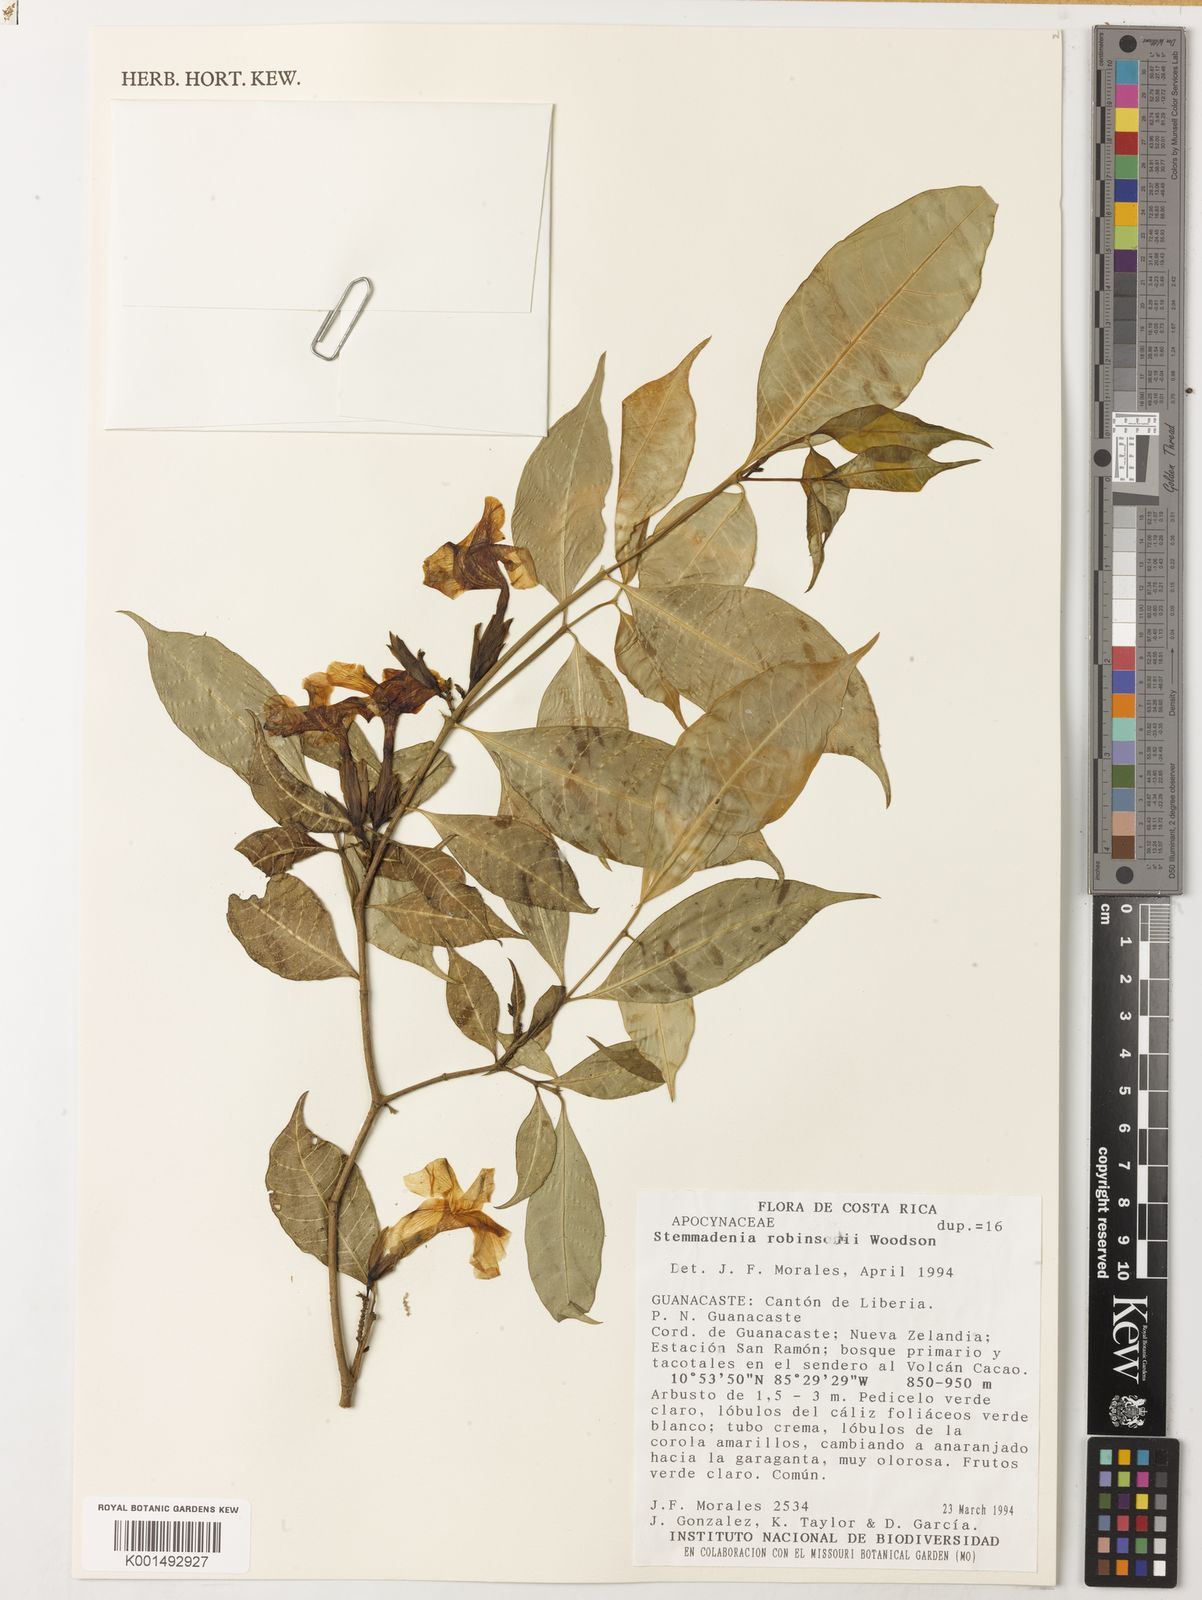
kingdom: Plantae
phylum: Tracheophyta
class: Magnoliopsida
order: Gentianales
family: Apocynaceae
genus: Macoubea
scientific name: Macoubea guianensis
